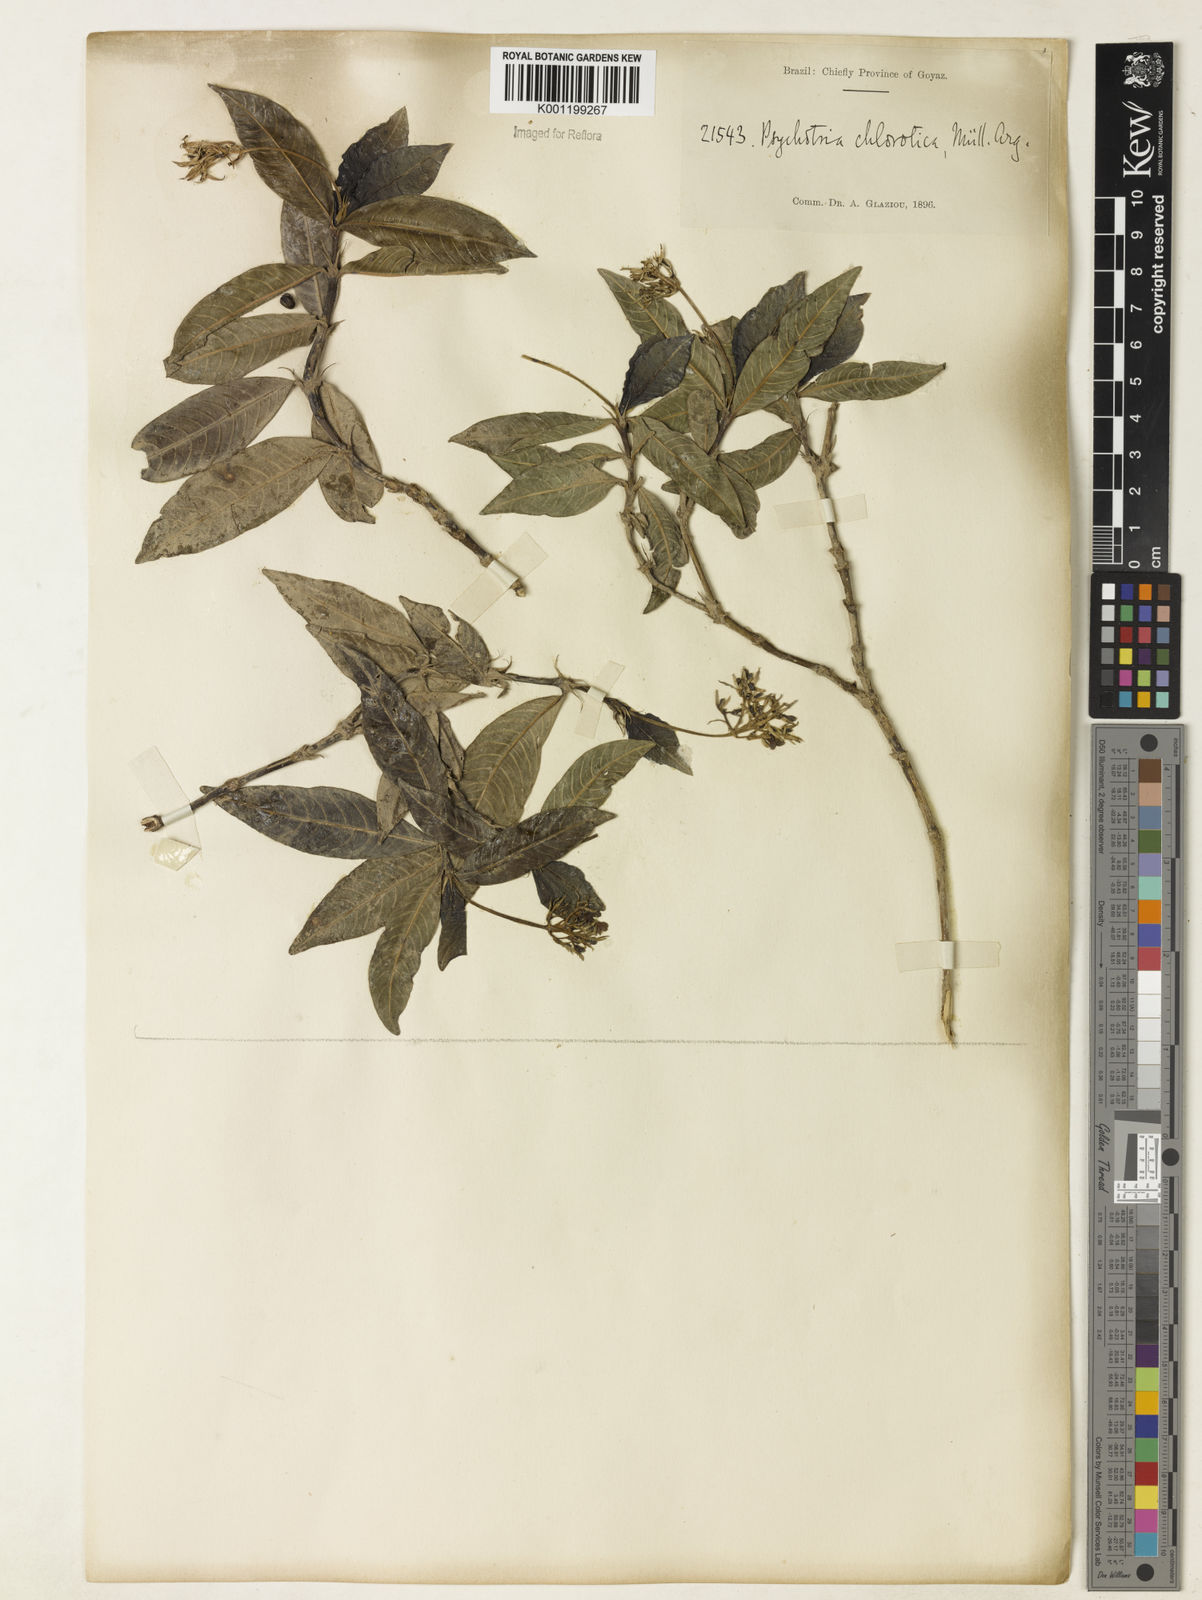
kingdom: Plantae
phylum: Tracheophyta
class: Magnoliopsida
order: Gentianales
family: Rubiaceae
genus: Palicourea
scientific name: Palicourea violacea
